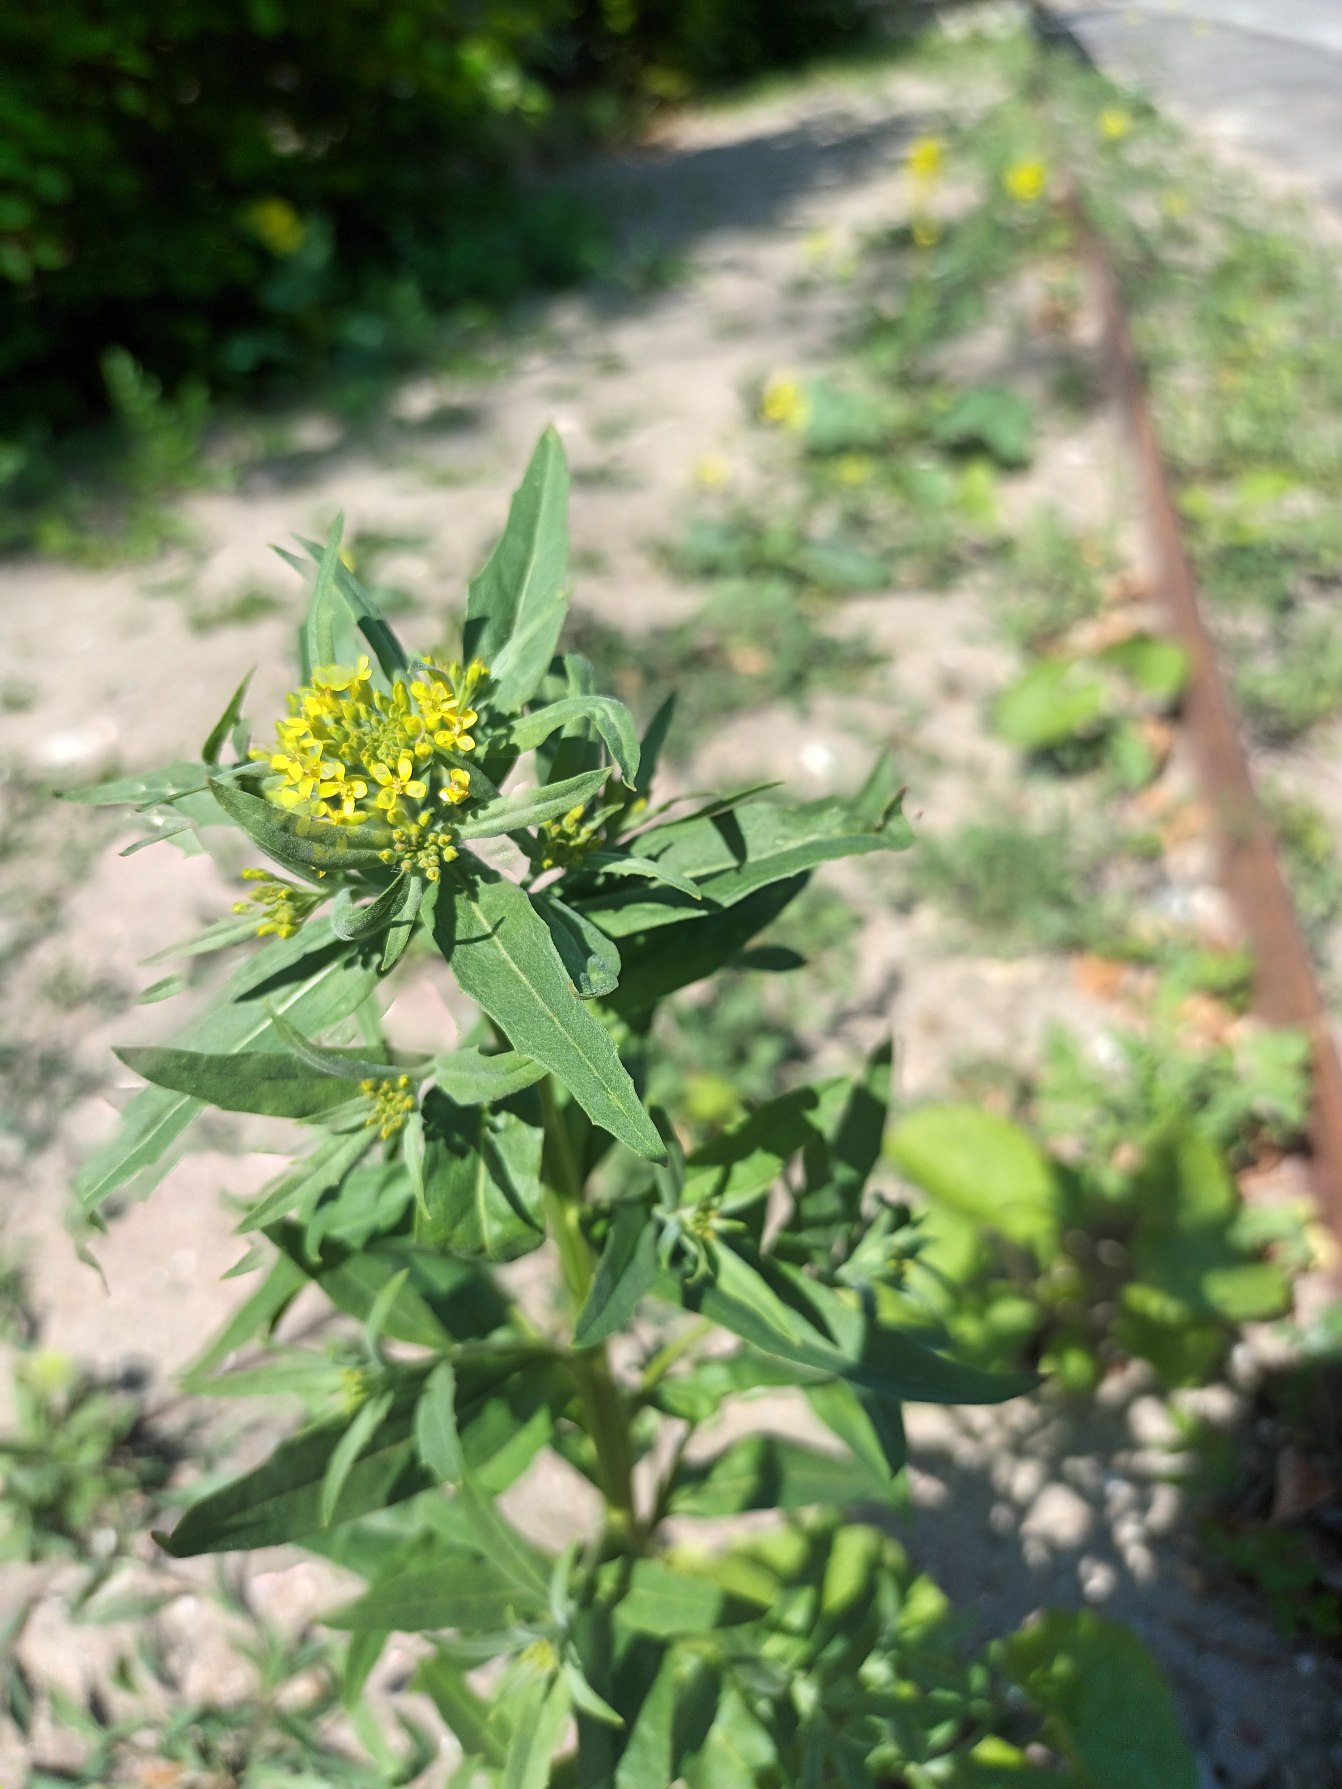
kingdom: Plantae
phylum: Tracheophyta
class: Magnoliopsida
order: Brassicales
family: Brassicaceae
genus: Erysimum
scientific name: Erysimum cheiranthoides
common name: Gyldenlak-hjørneklap
